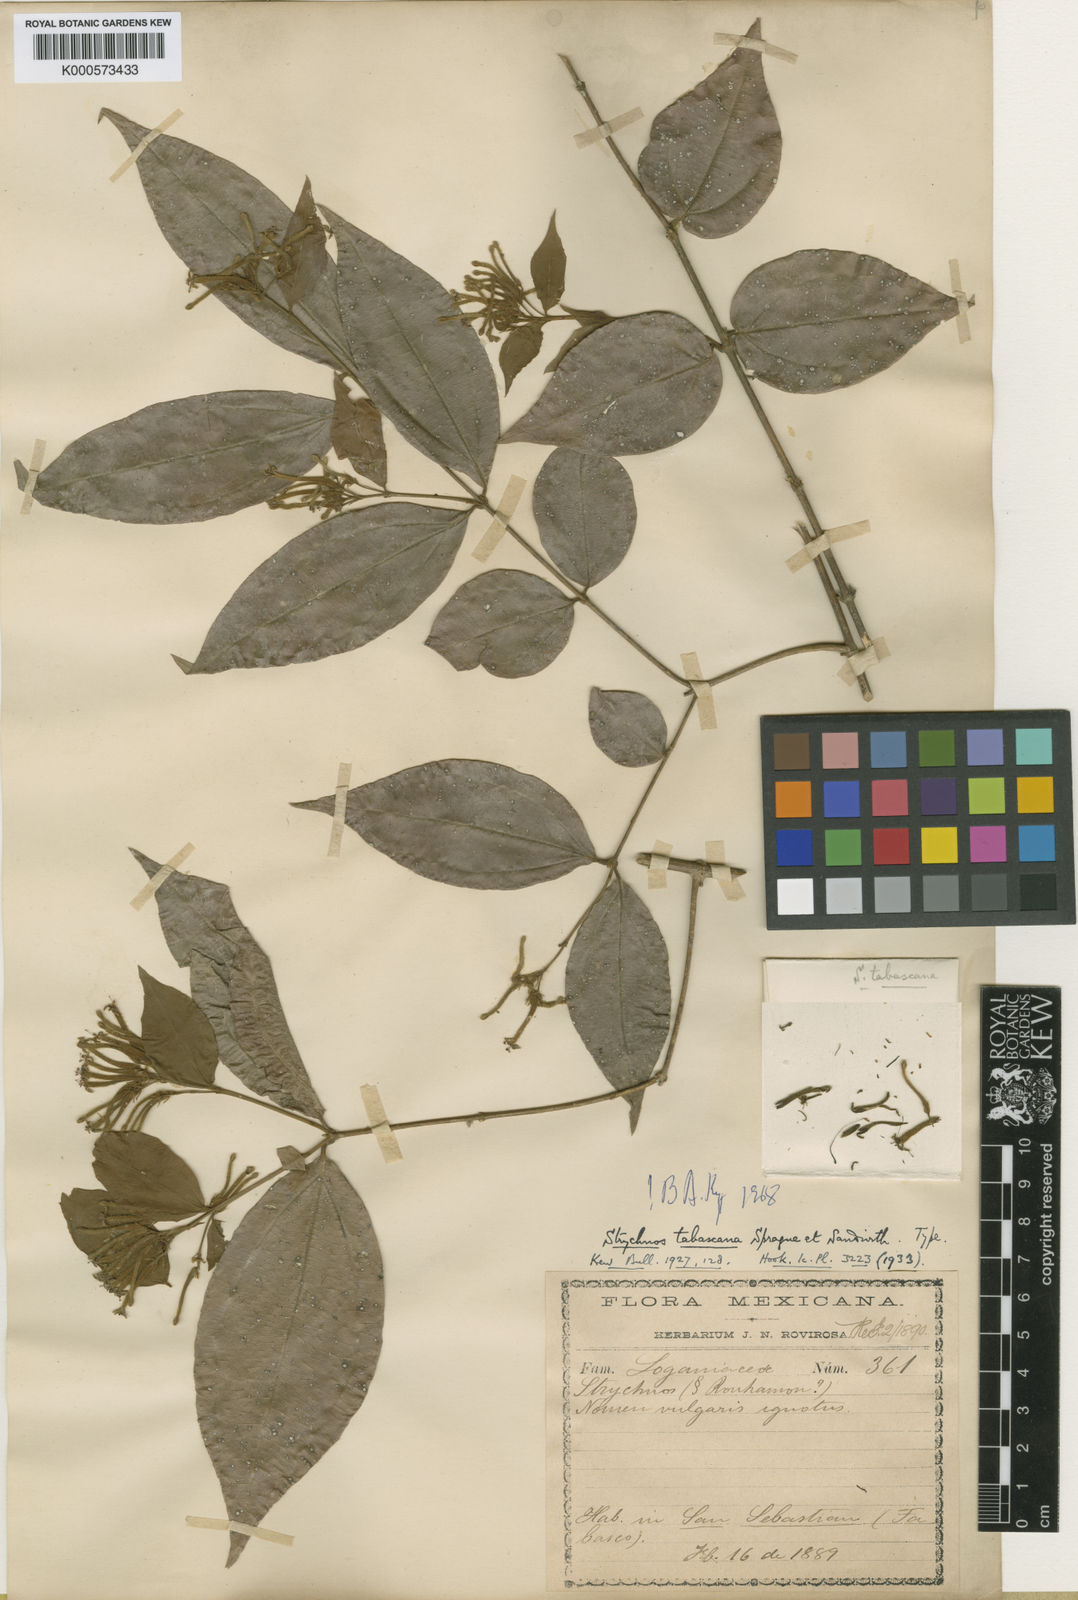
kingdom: Plantae
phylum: Tracheophyta
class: Magnoliopsida
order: Gentianales
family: Loganiaceae
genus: Strychnos
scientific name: Strychnos panamensis
